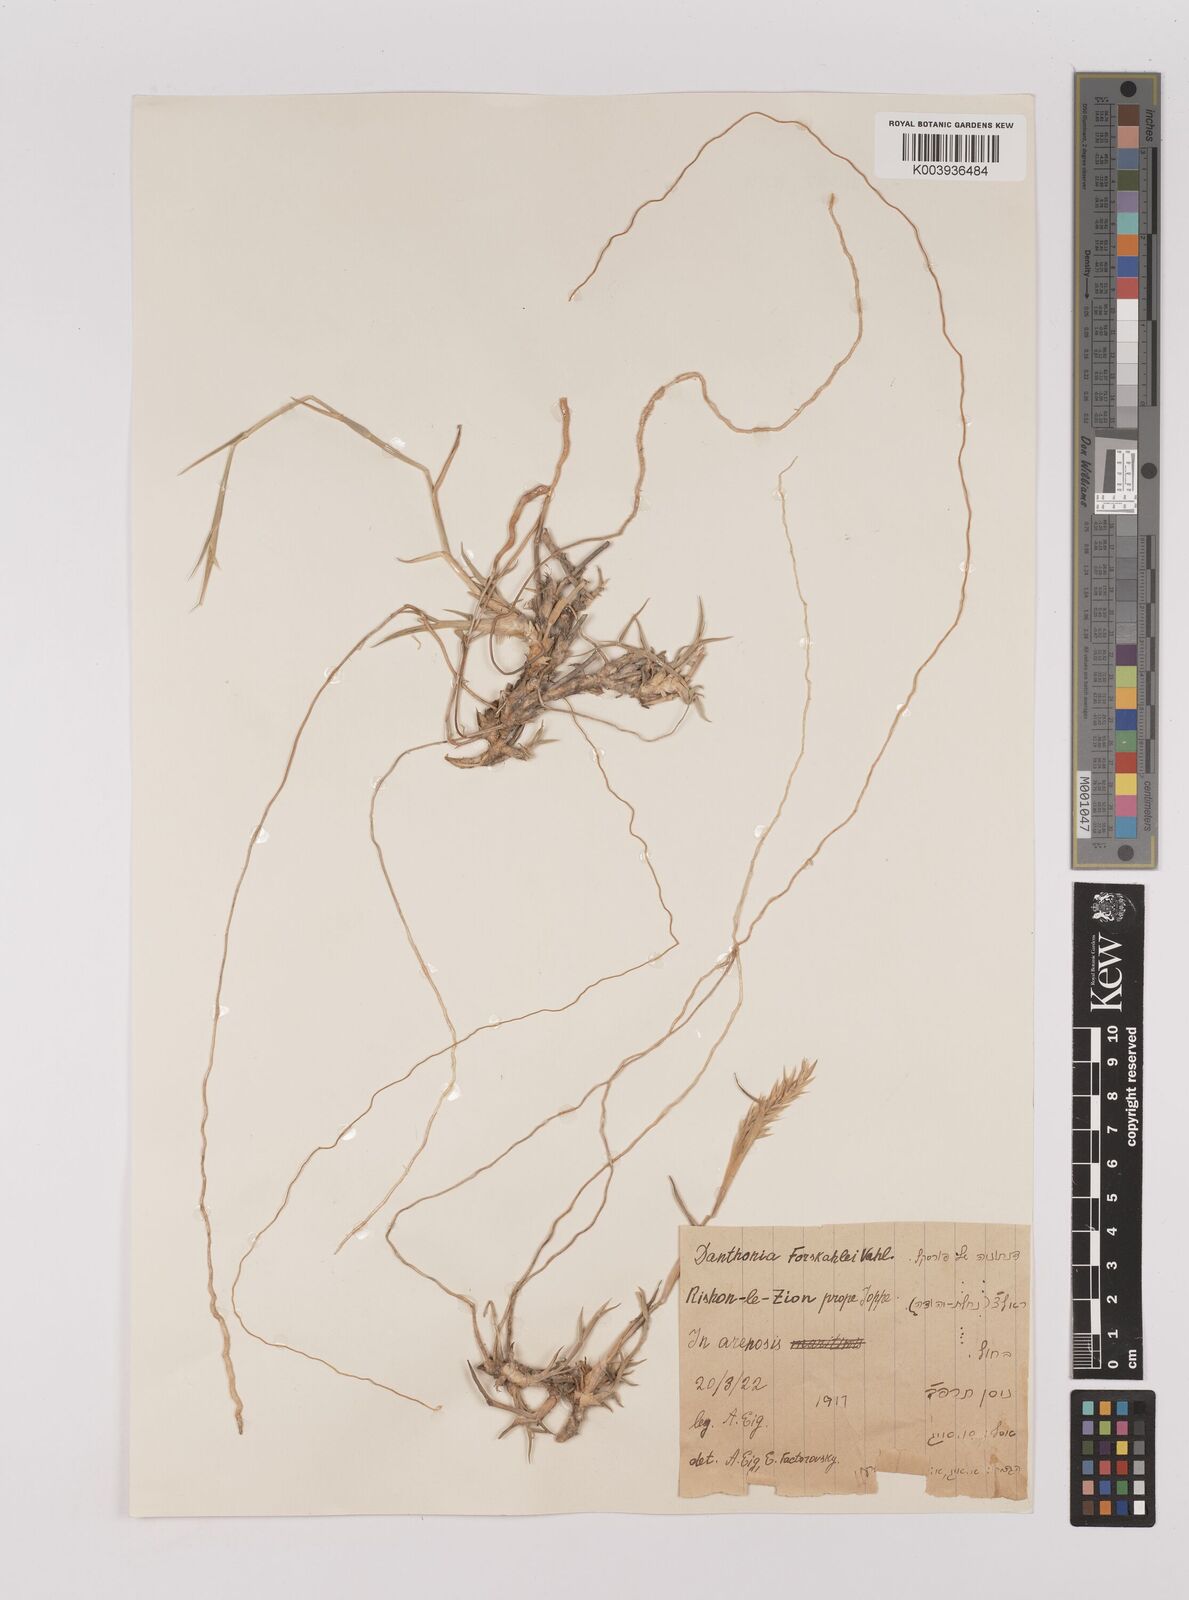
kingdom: Plantae
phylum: Tracheophyta
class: Liliopsida
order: Poales
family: Poaceae
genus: Centropodia
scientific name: Centropodia forskaolii
